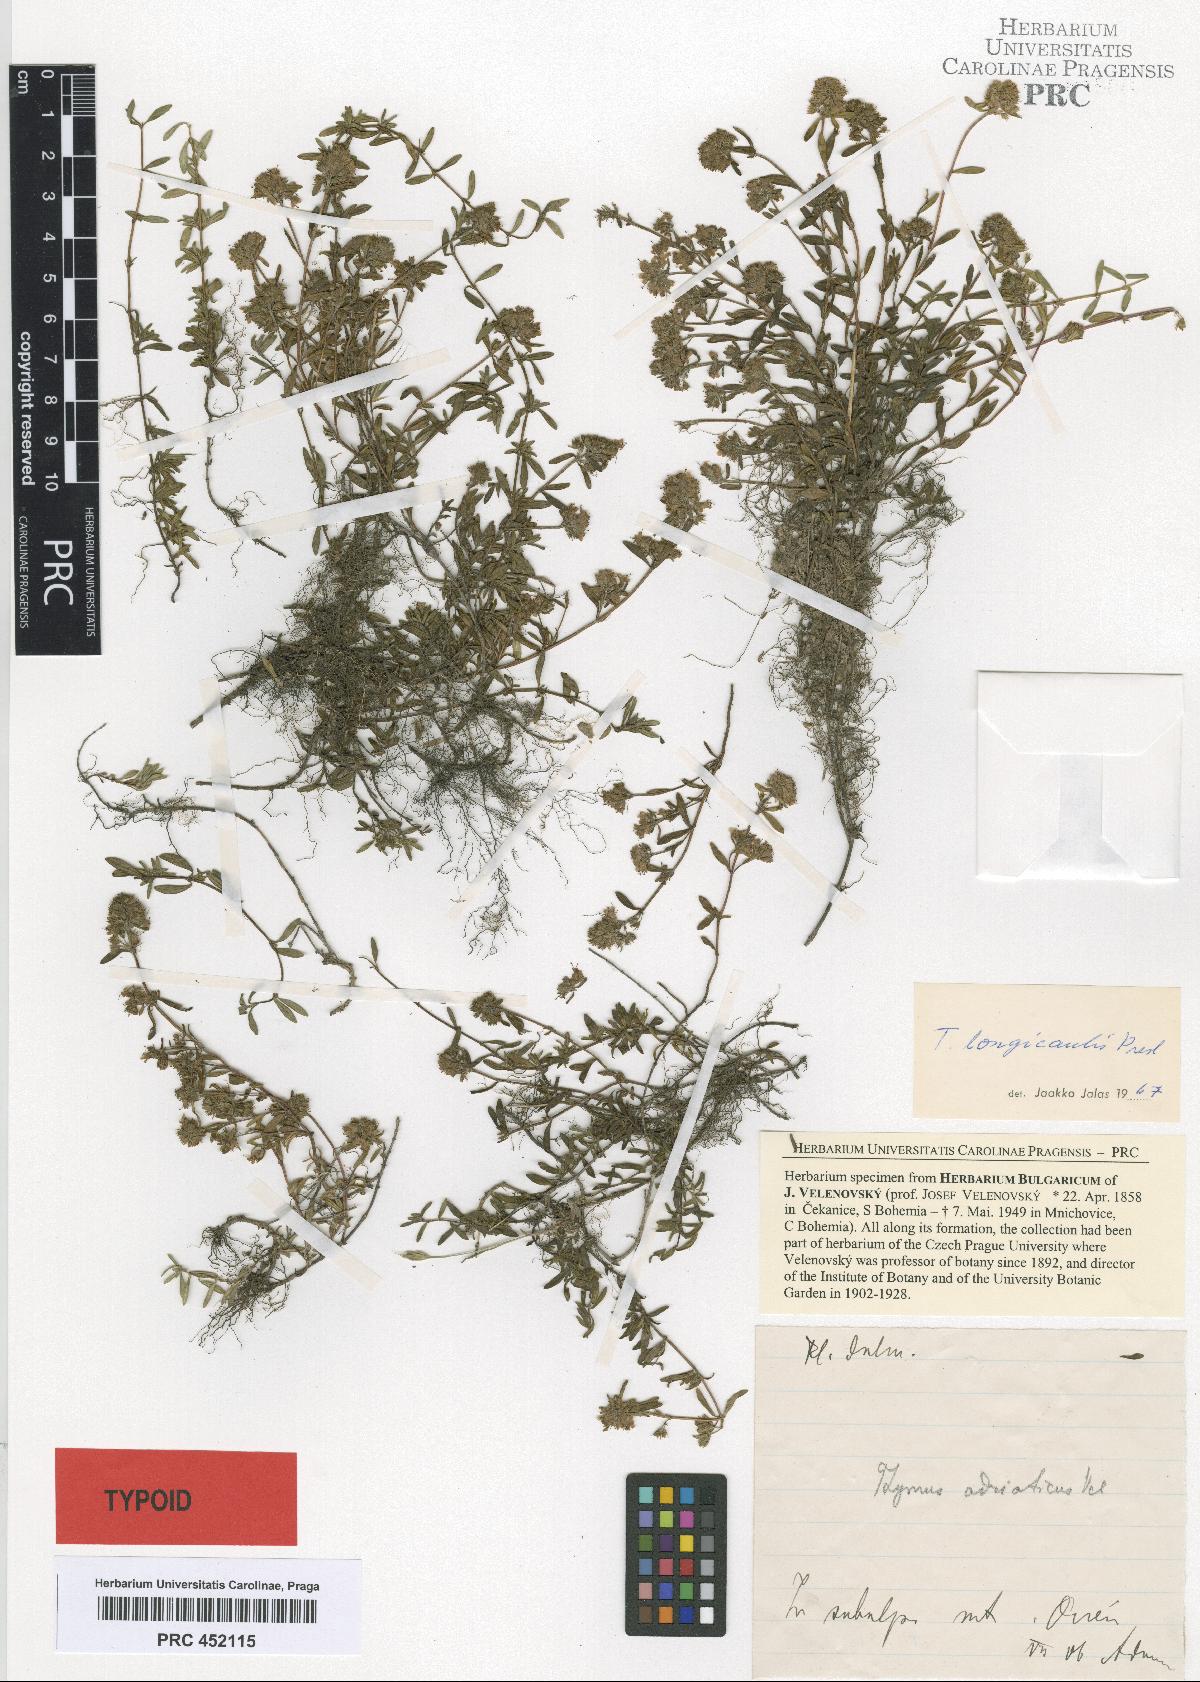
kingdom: Plantae
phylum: Tracheophyta
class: Magnoliopsida
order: Lamiales
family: Lamiaceae
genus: Thymus
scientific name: Thymus longicaulis
